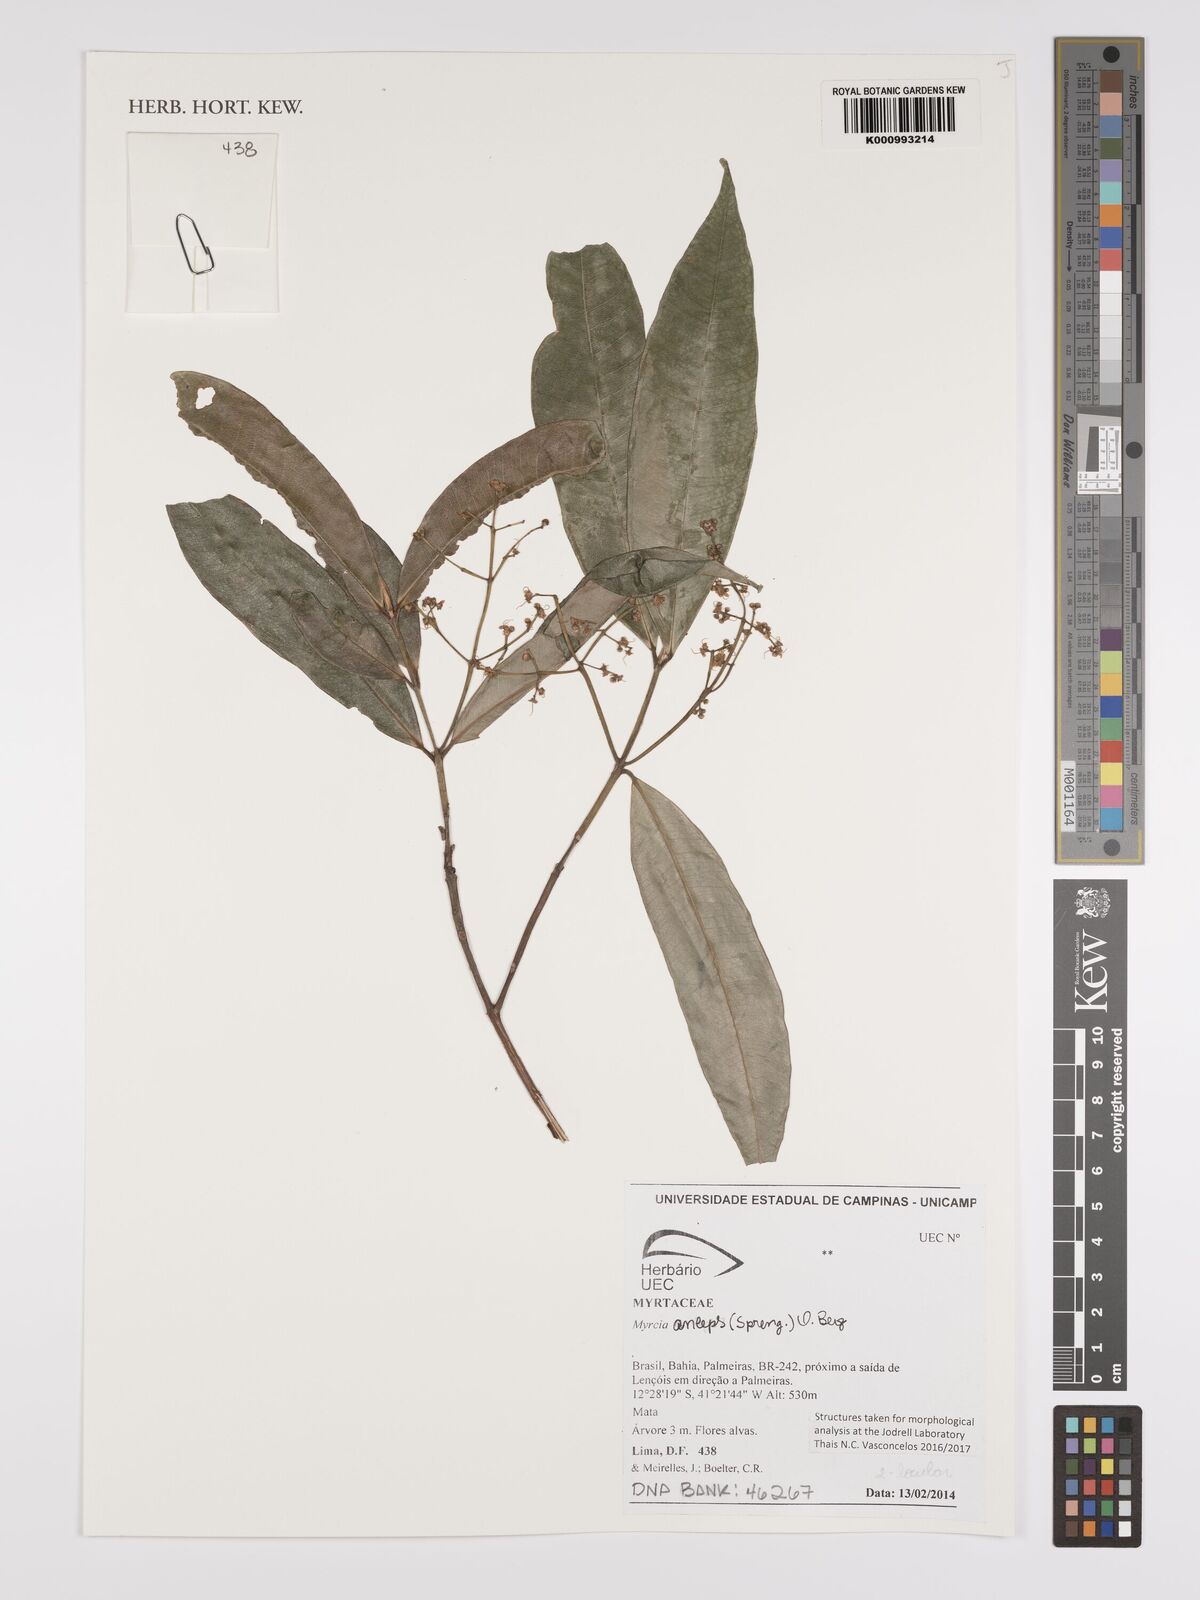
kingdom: Plantae
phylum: Tracheophyta
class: Magnoliopsida
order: Myrtales
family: Myrtaceae
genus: Myrcia
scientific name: Myrcia anceps
